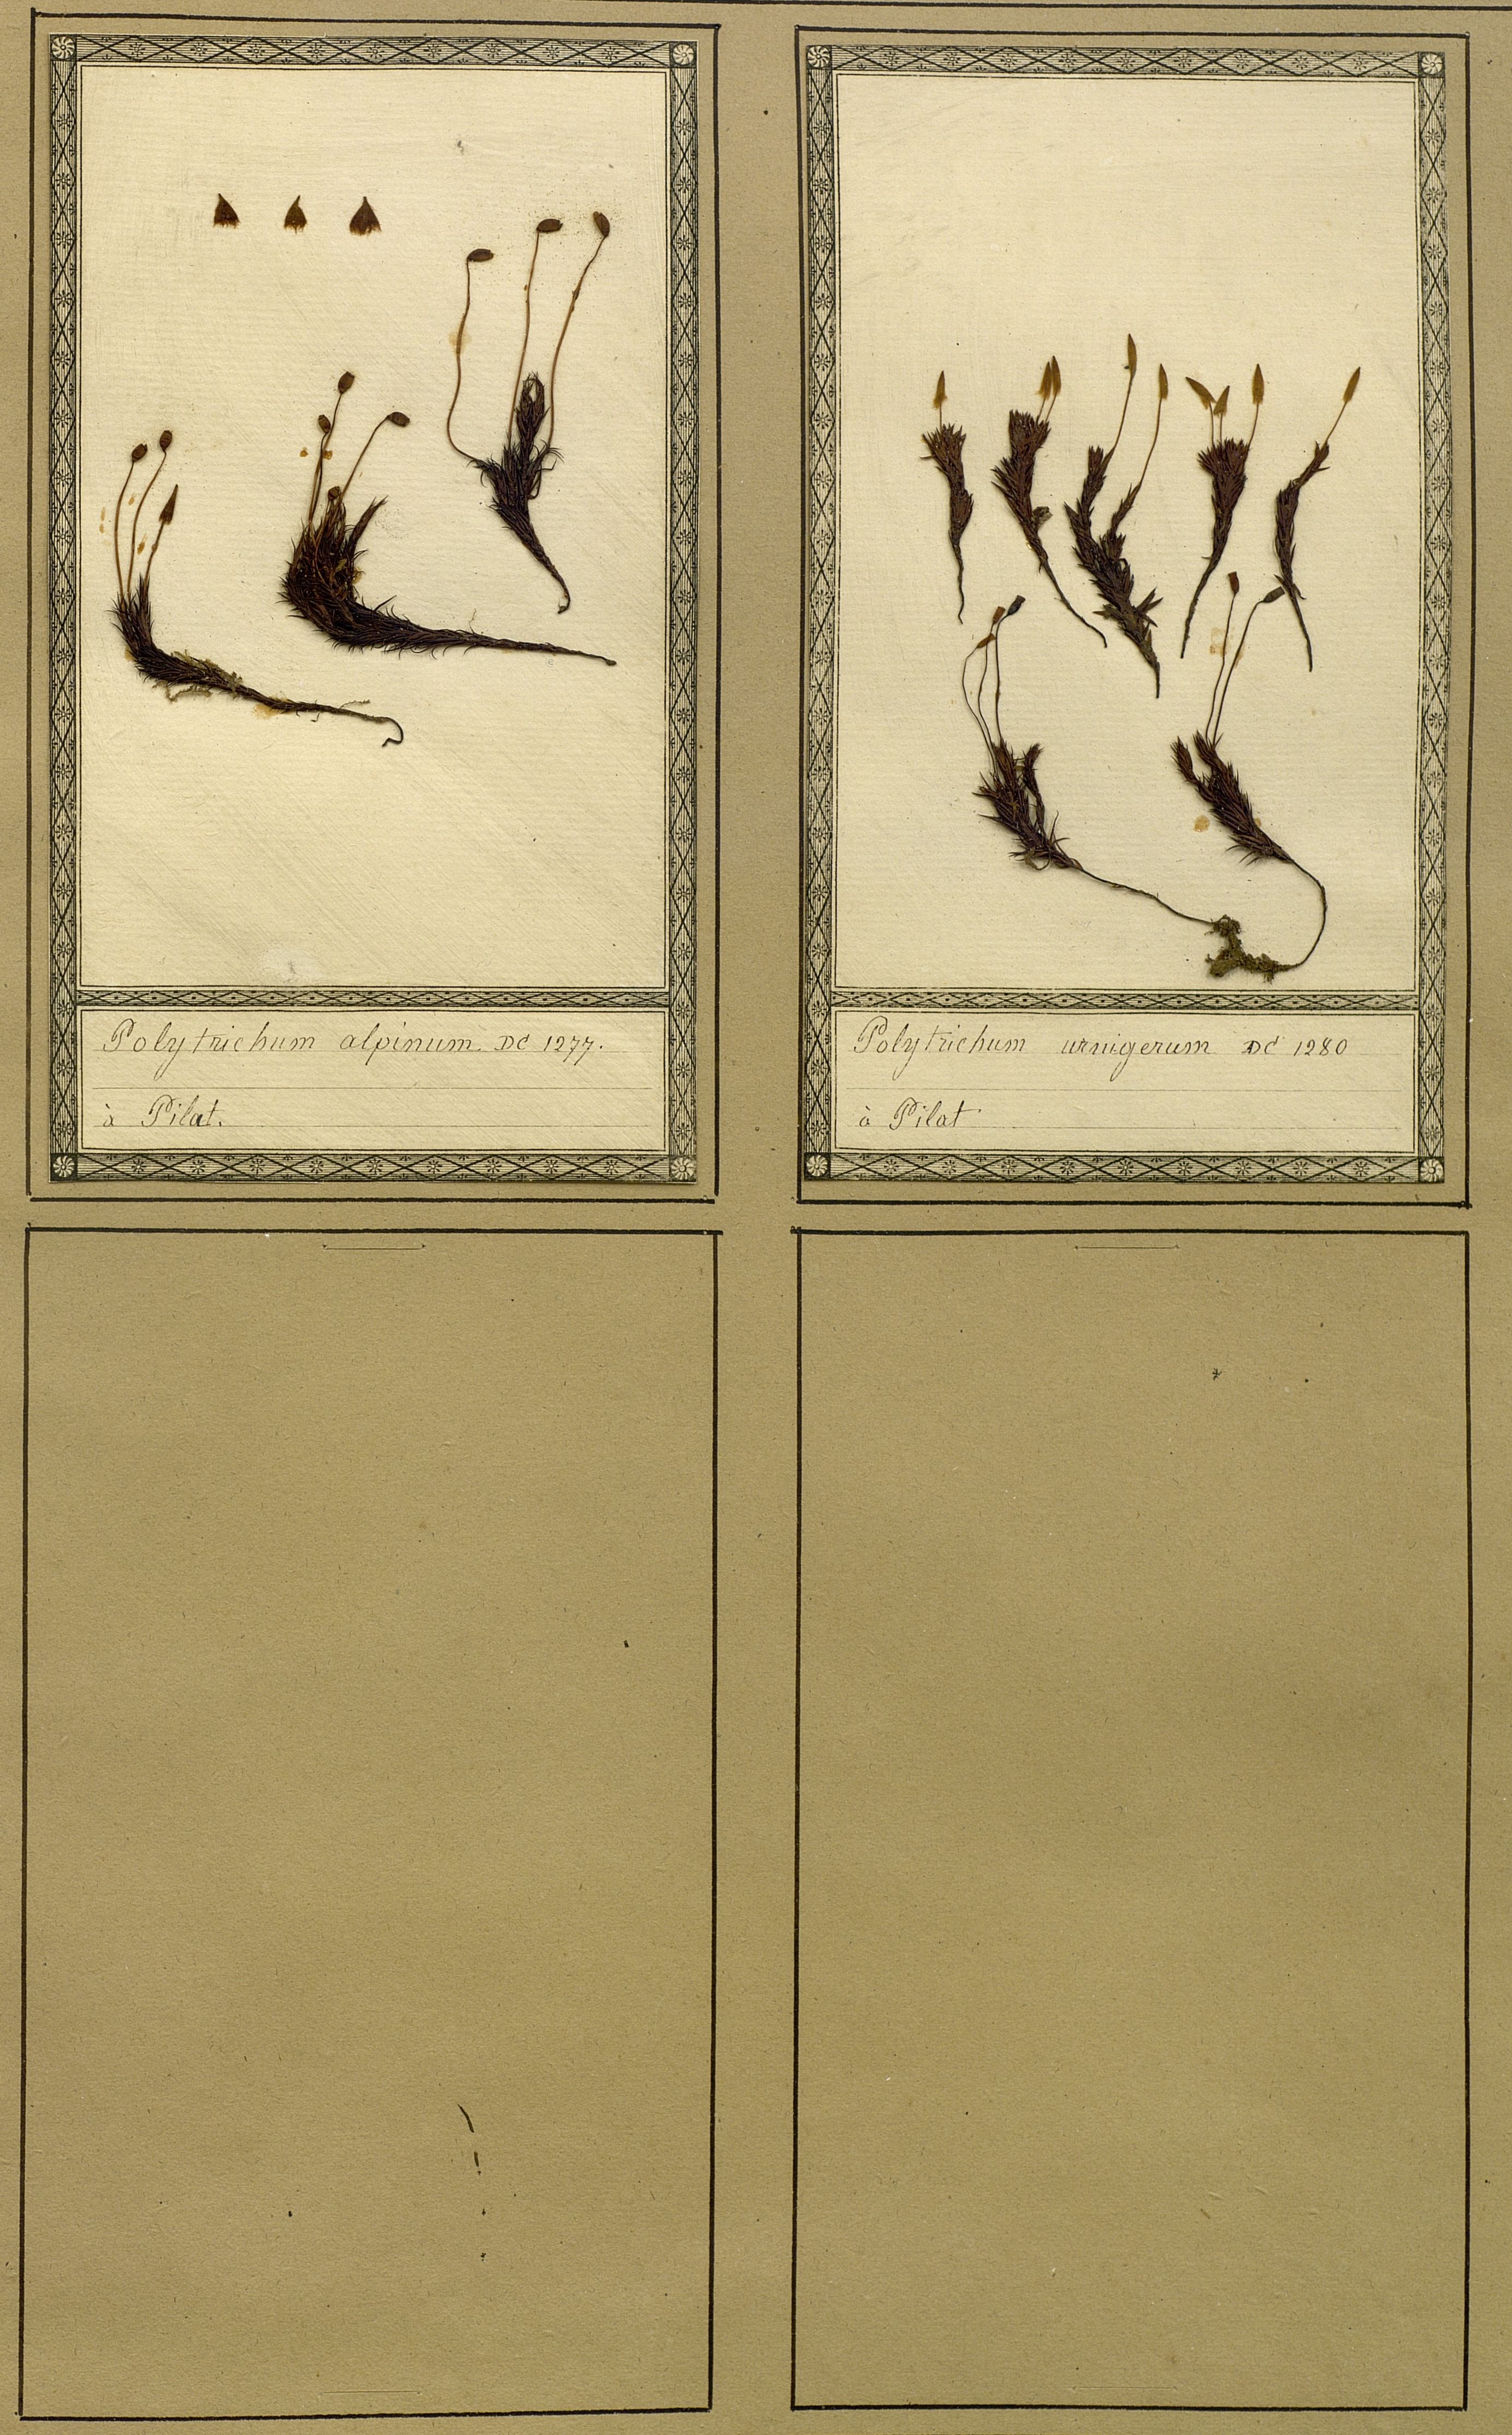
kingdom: Plantae
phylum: Bryophyta
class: Polytrichopsida
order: Polytrichales
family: Polytrichaceae
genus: Polytrichastrum
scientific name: Polytrichastrum alpinum
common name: Alpine haircap
